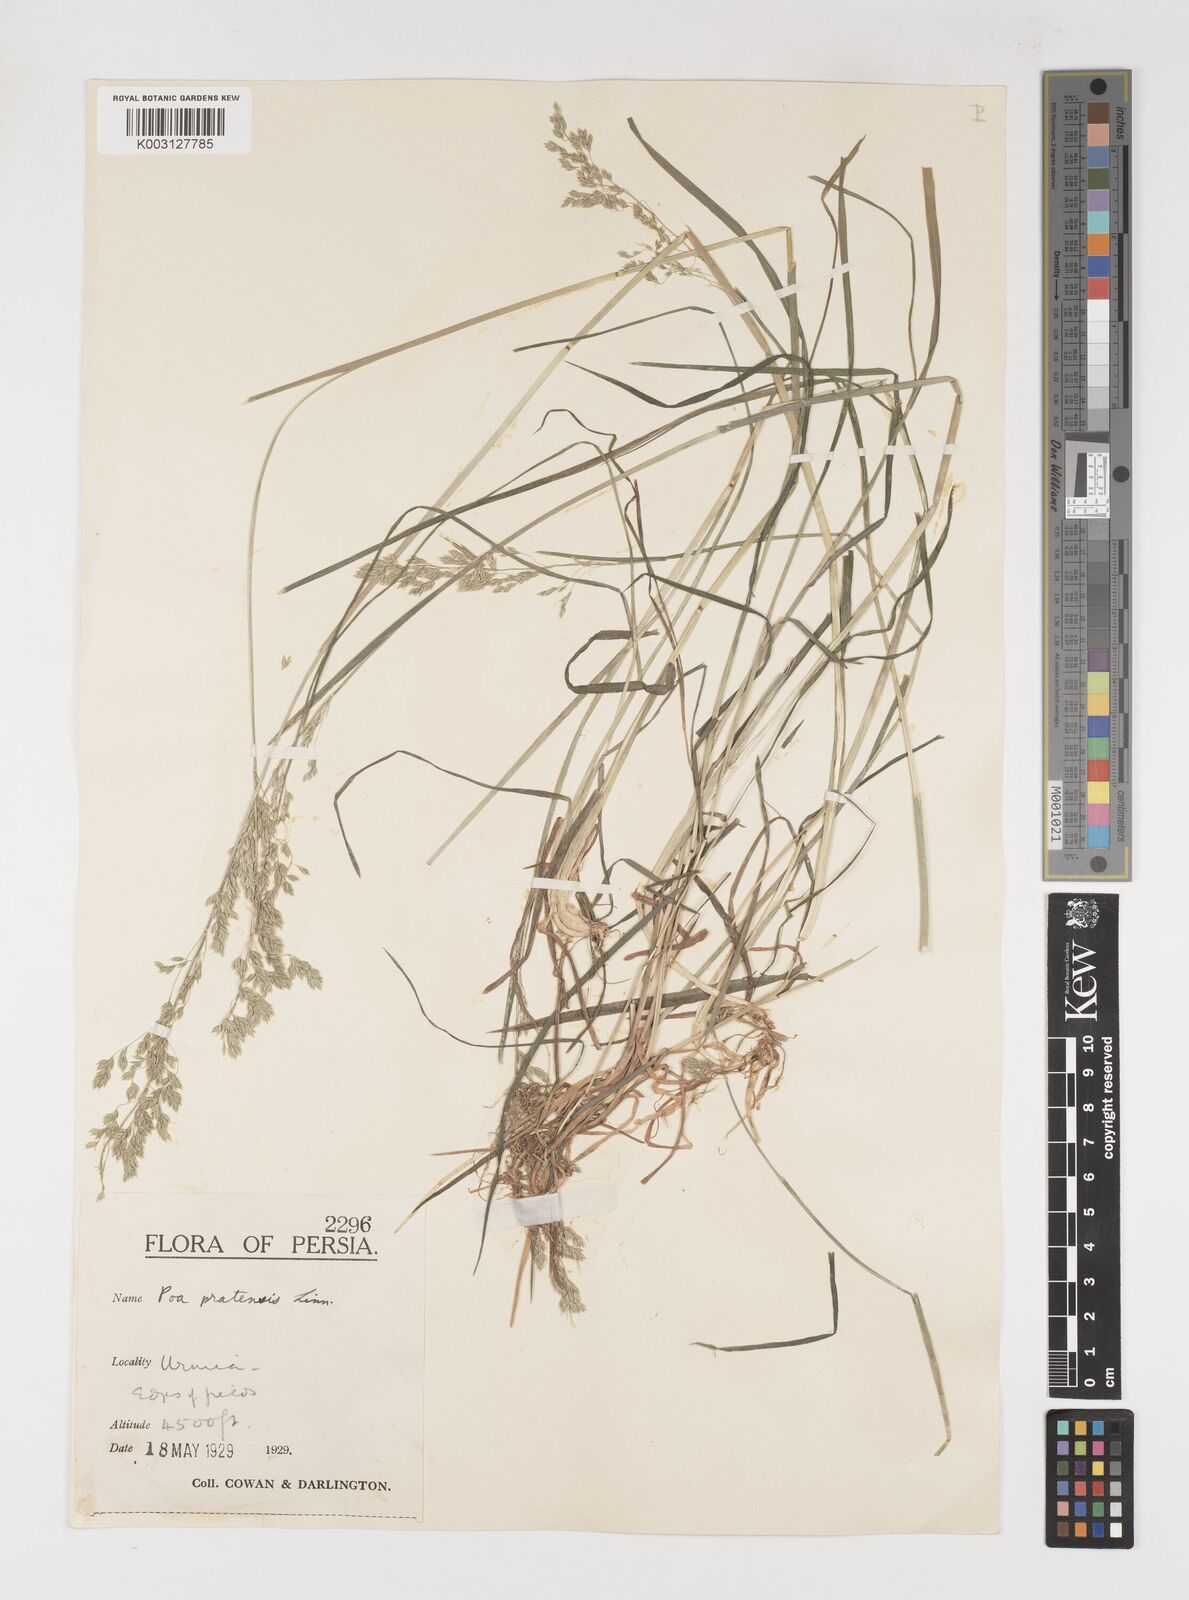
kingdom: Plantae
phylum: Tracheophyta
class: Liliopsida
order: Poales
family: Poaceae
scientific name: Poaceae
